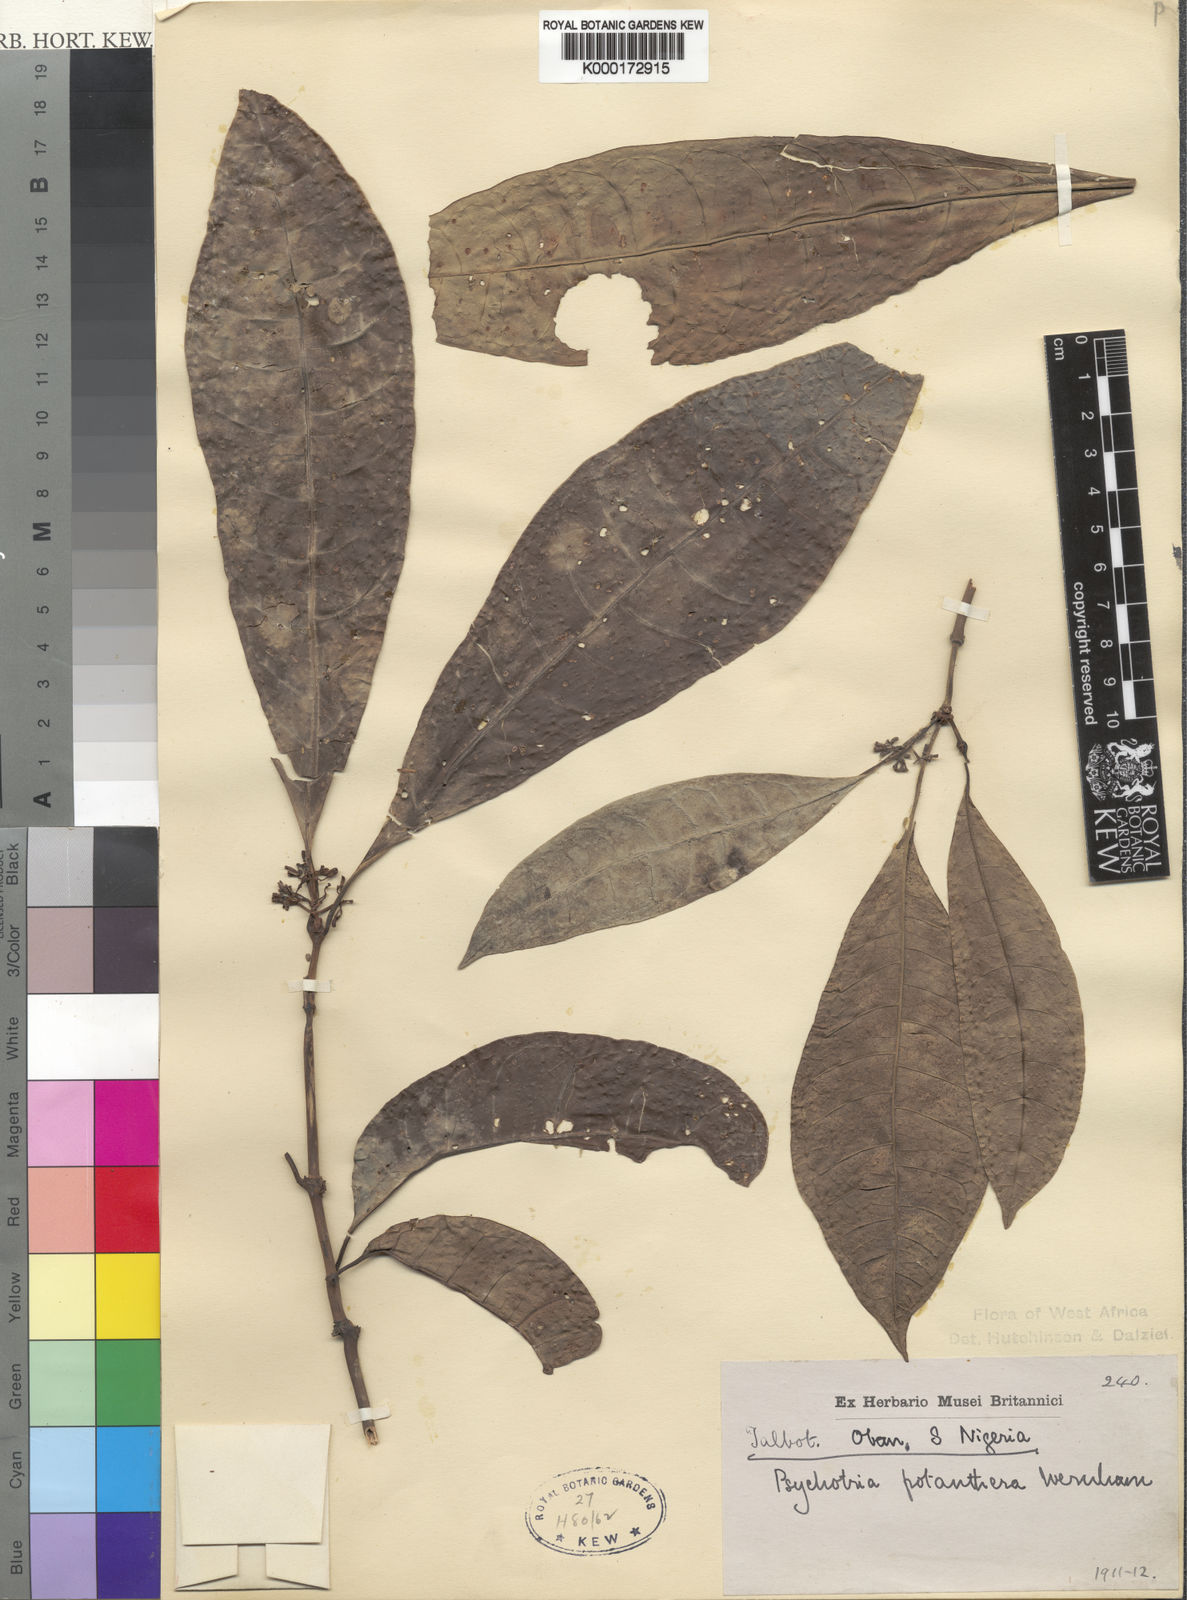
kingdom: Plantae
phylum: Tracheophyta
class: Magnoliopsida
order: Gentianales
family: Rubiaceae
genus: Psychotria
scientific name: Psychotria potanthera
